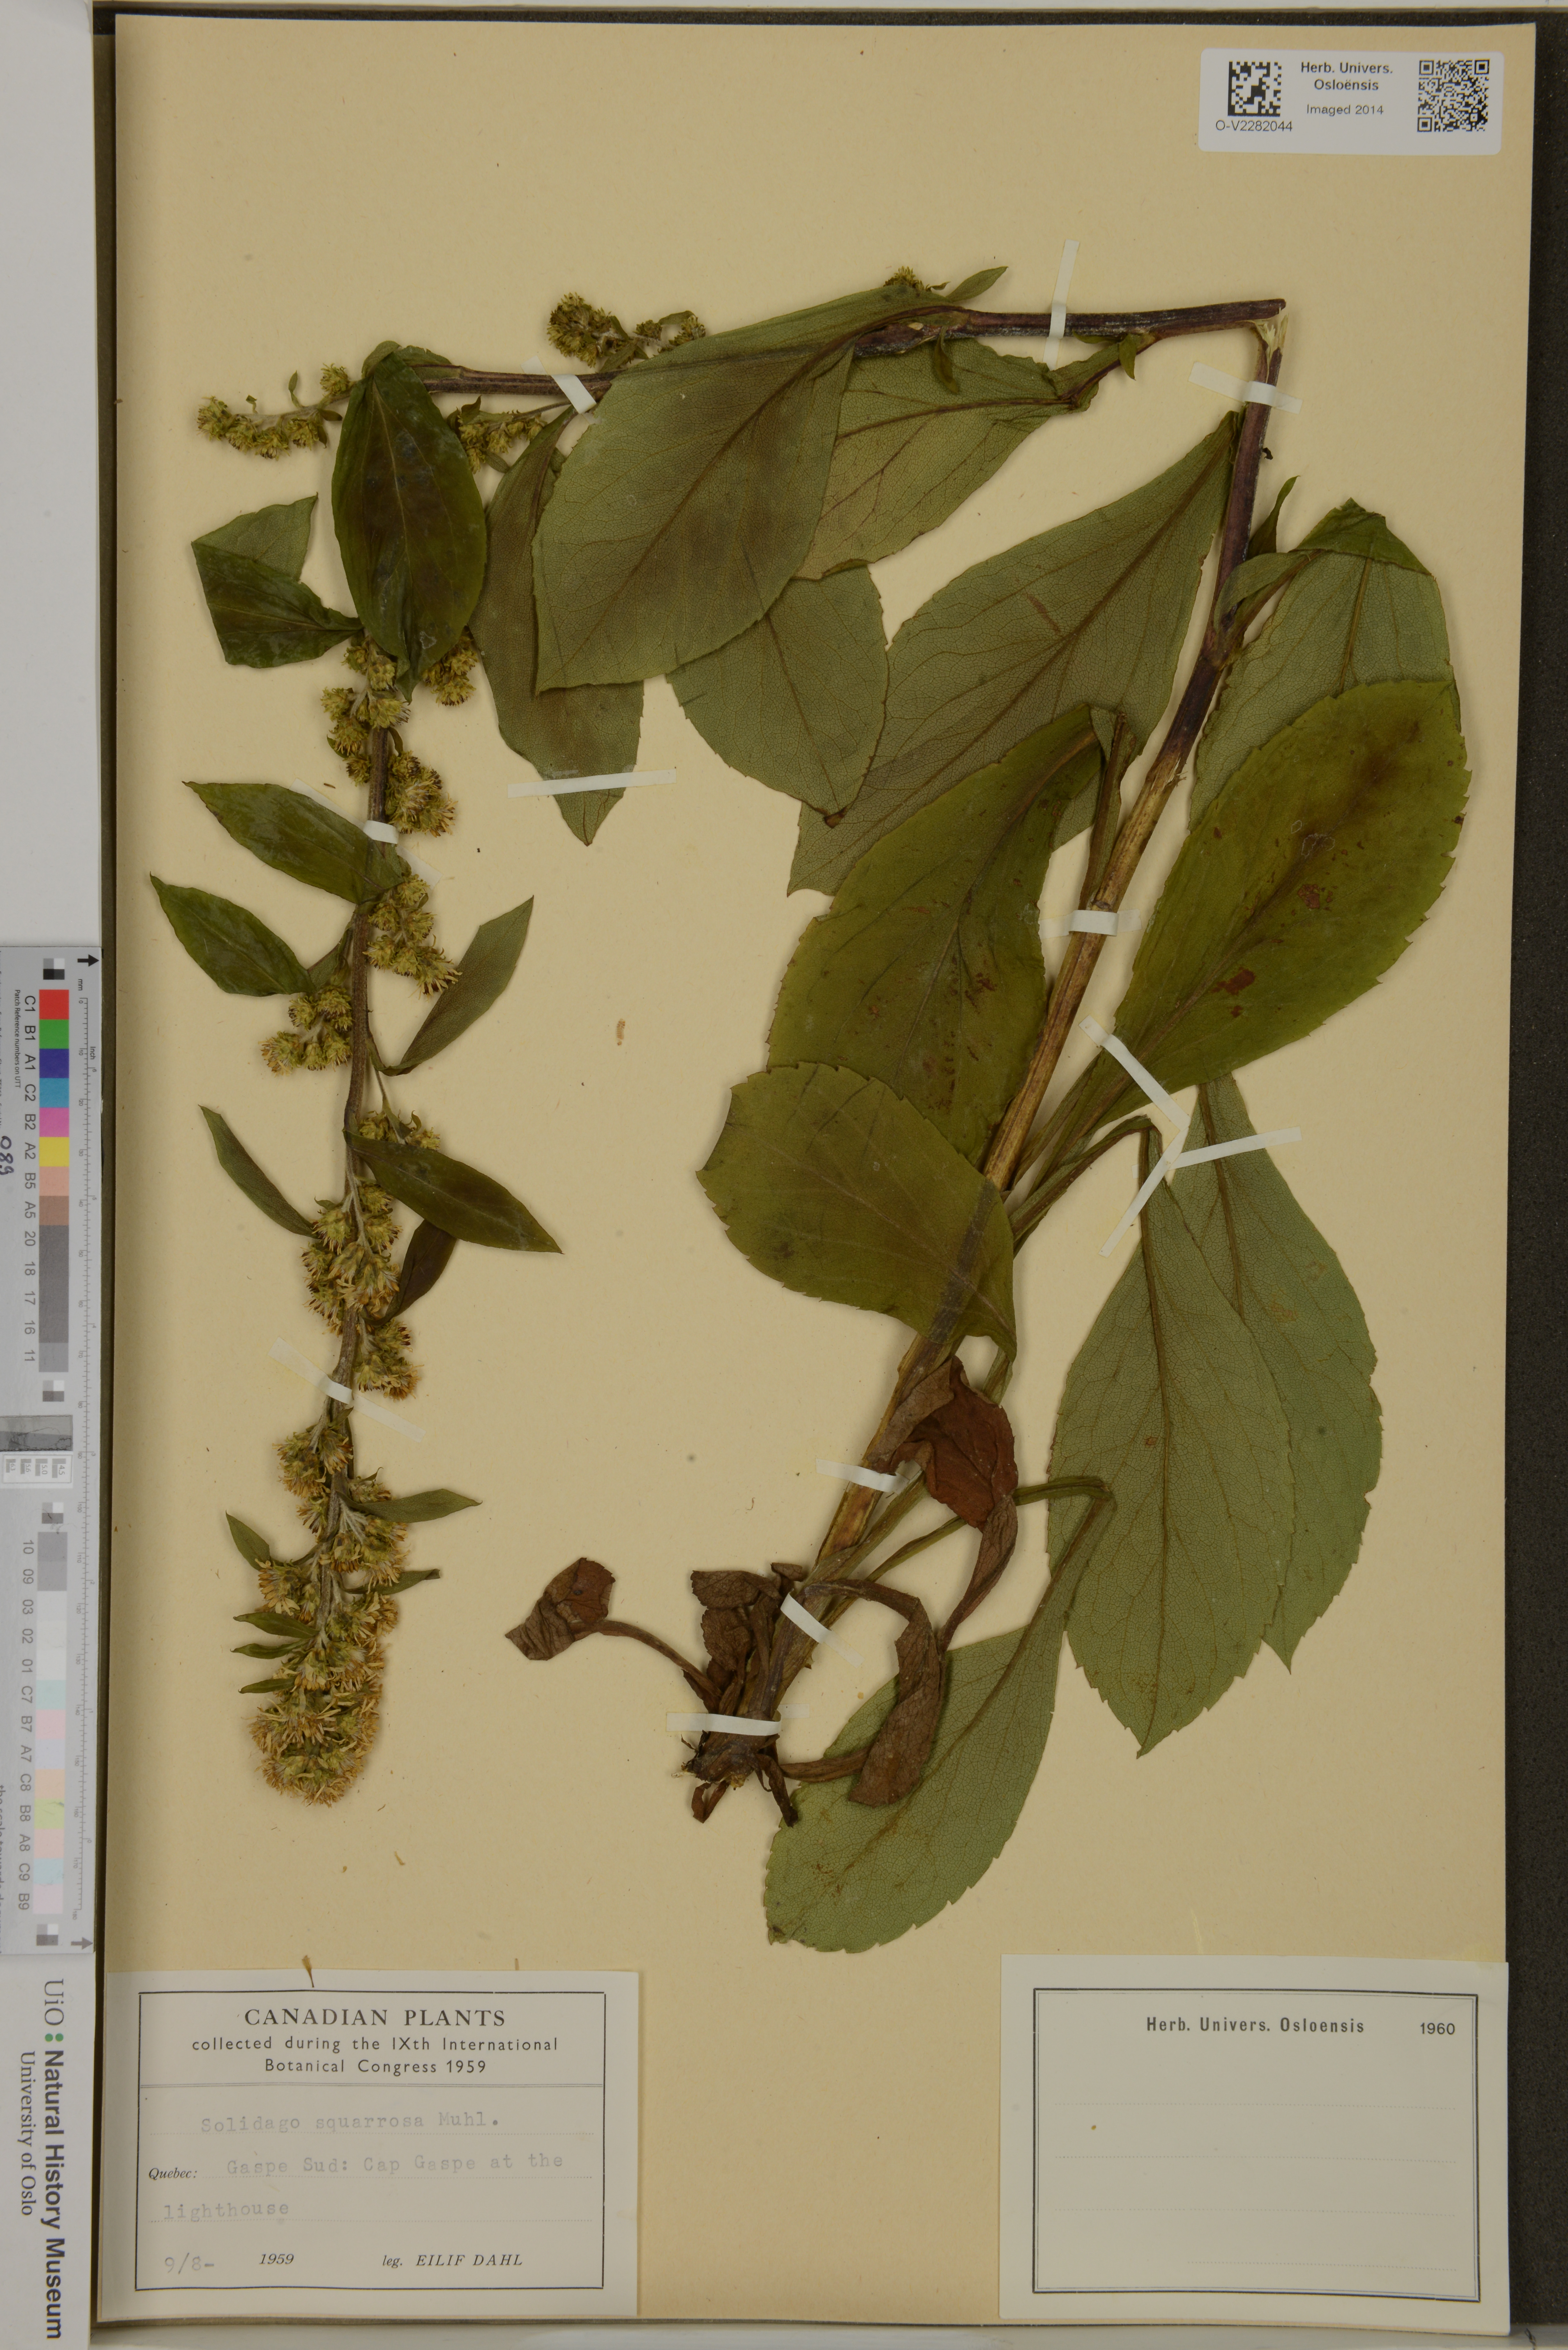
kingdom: Plantae
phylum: Tracheophyta
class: Magnoliopsida
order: Asterales
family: Asteraceae
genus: Solidago
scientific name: Solidago squarrosa
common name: Stout goldenrod
